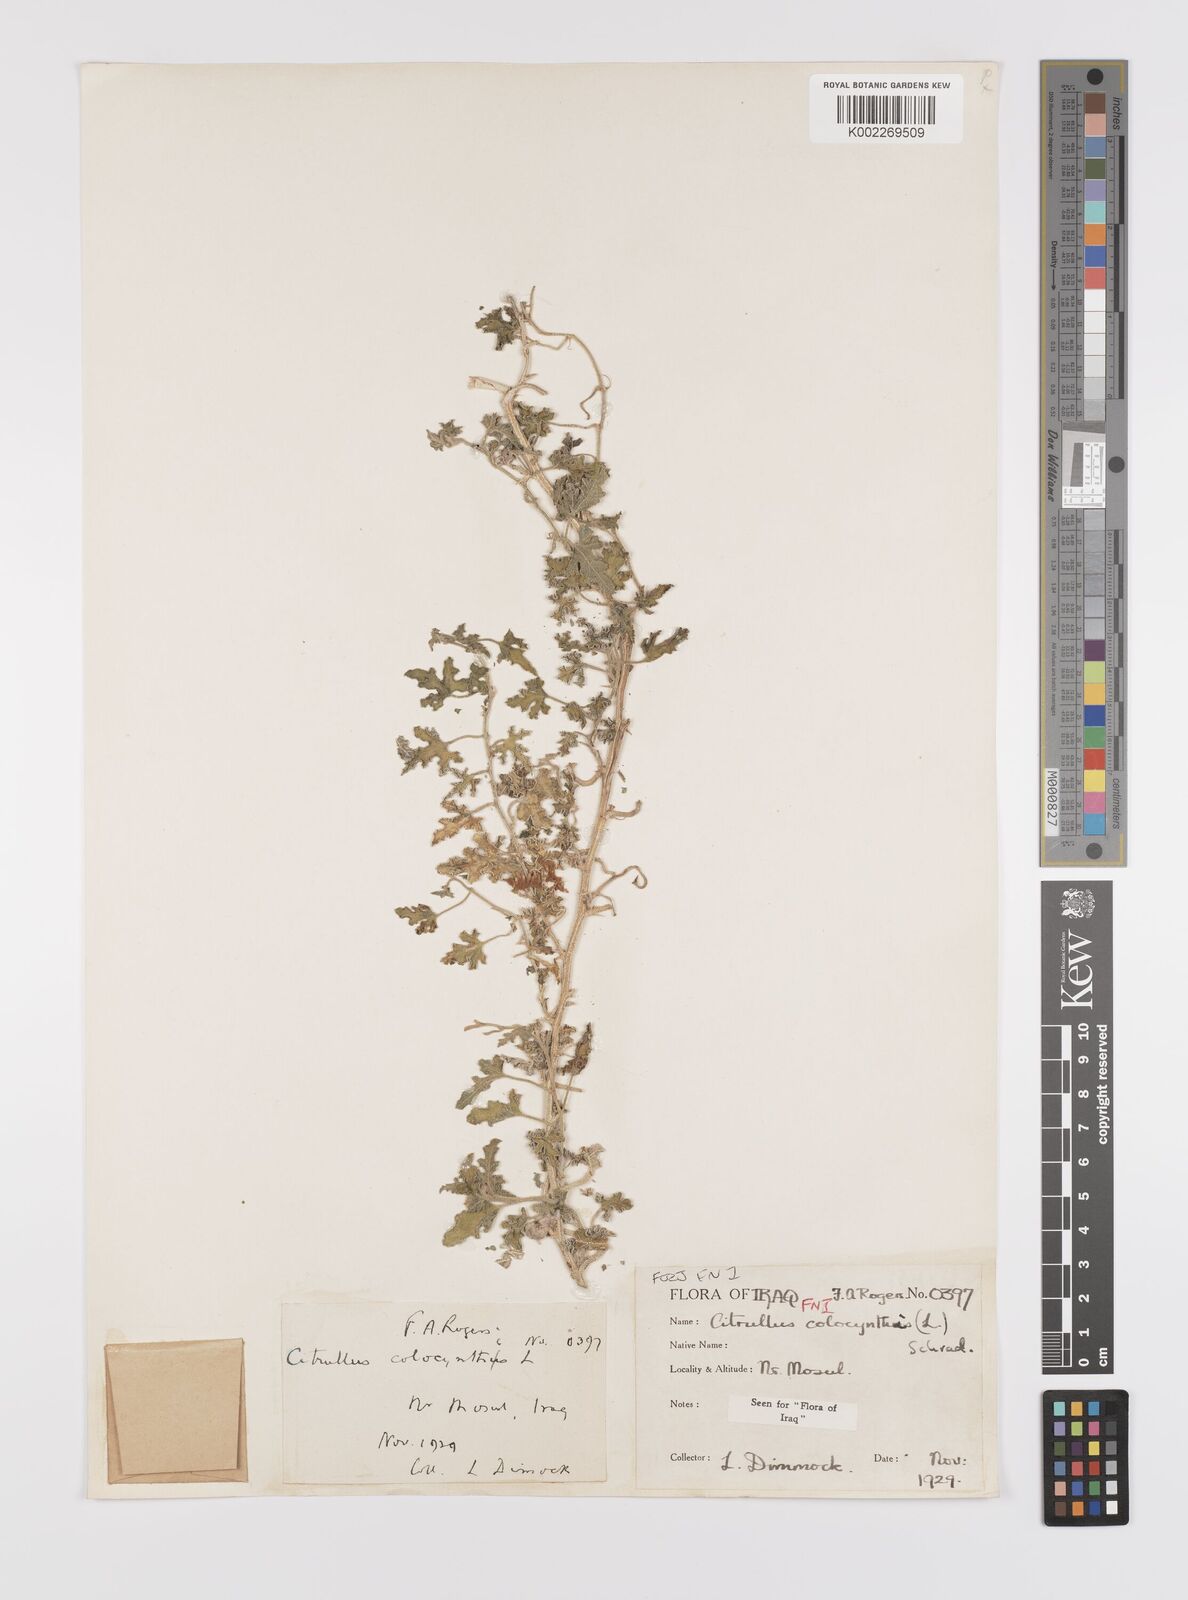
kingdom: Plantae
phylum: Tracheophyta
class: Magnoliopsida
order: Cucurbitales
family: Cucurbitaceae
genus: Citrullus
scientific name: Citrullus colocynthis
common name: Colocynth
